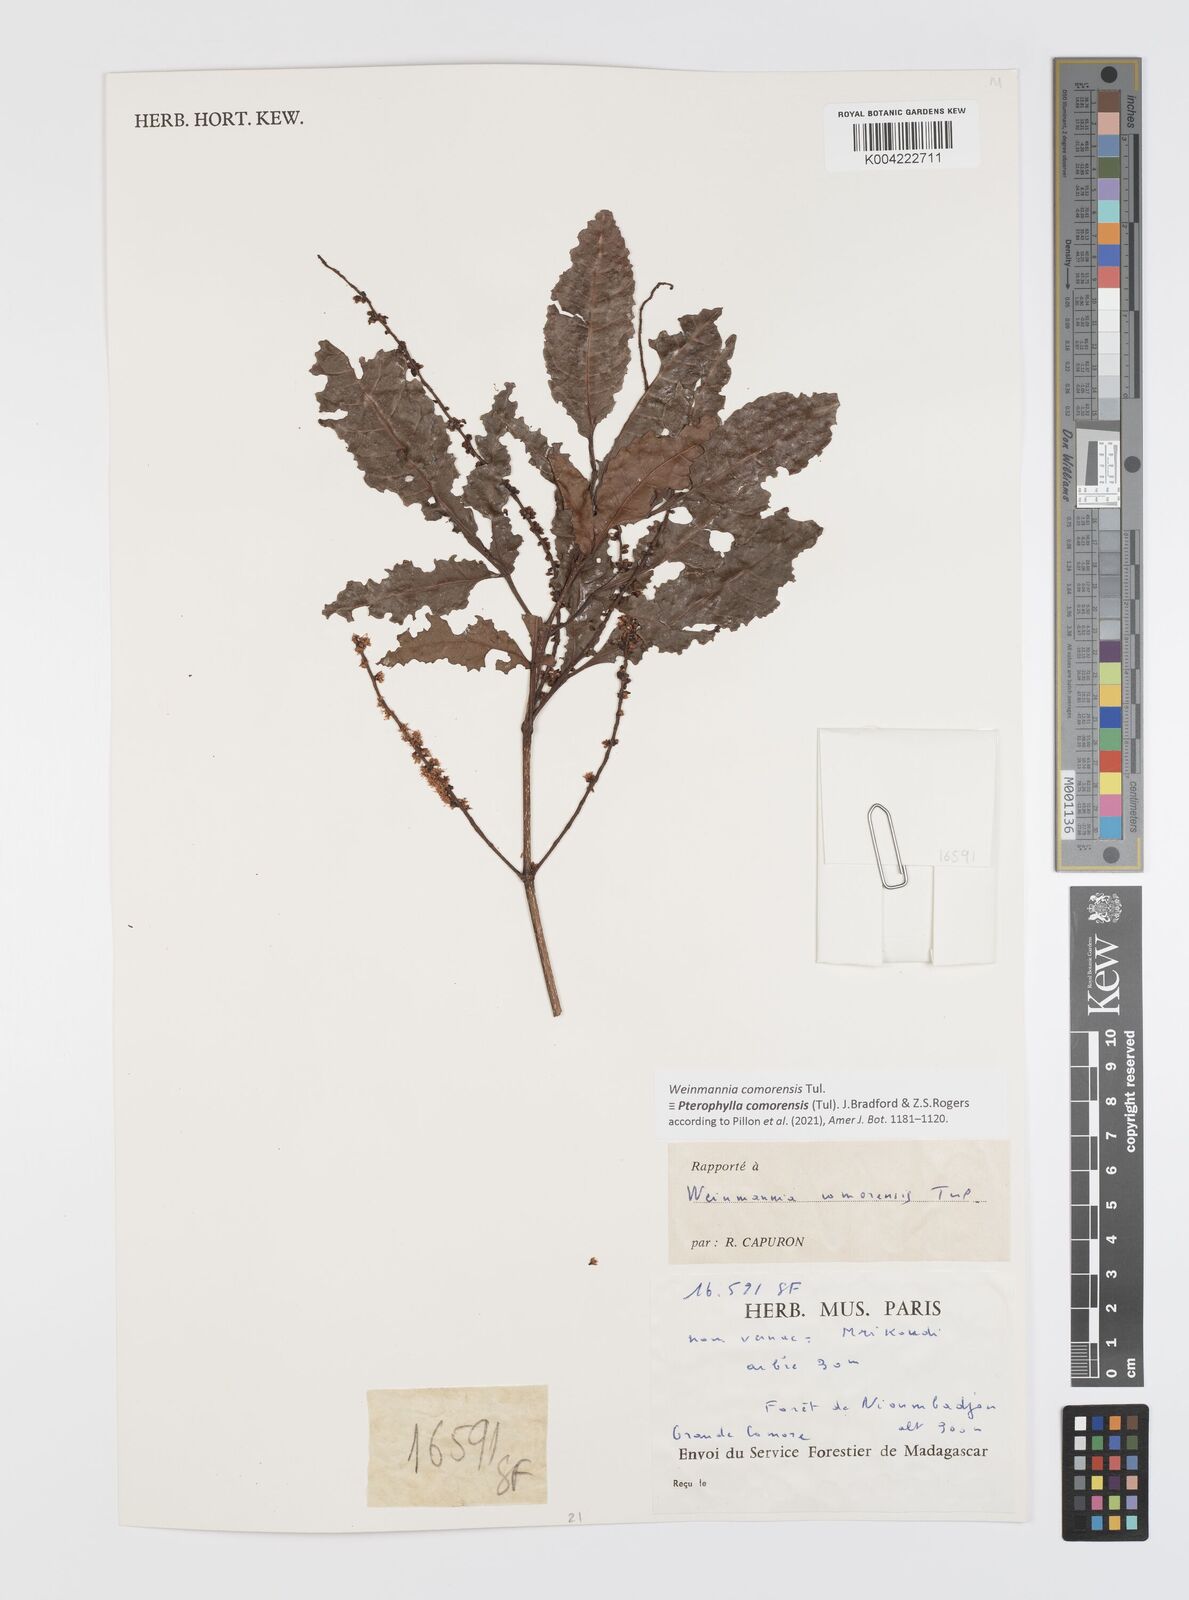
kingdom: Plantae
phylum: Tracheophyta
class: Magnoliopsida
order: Oxalidales
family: Cunoniaceae
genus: Pterophylla
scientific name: Pterophylla
